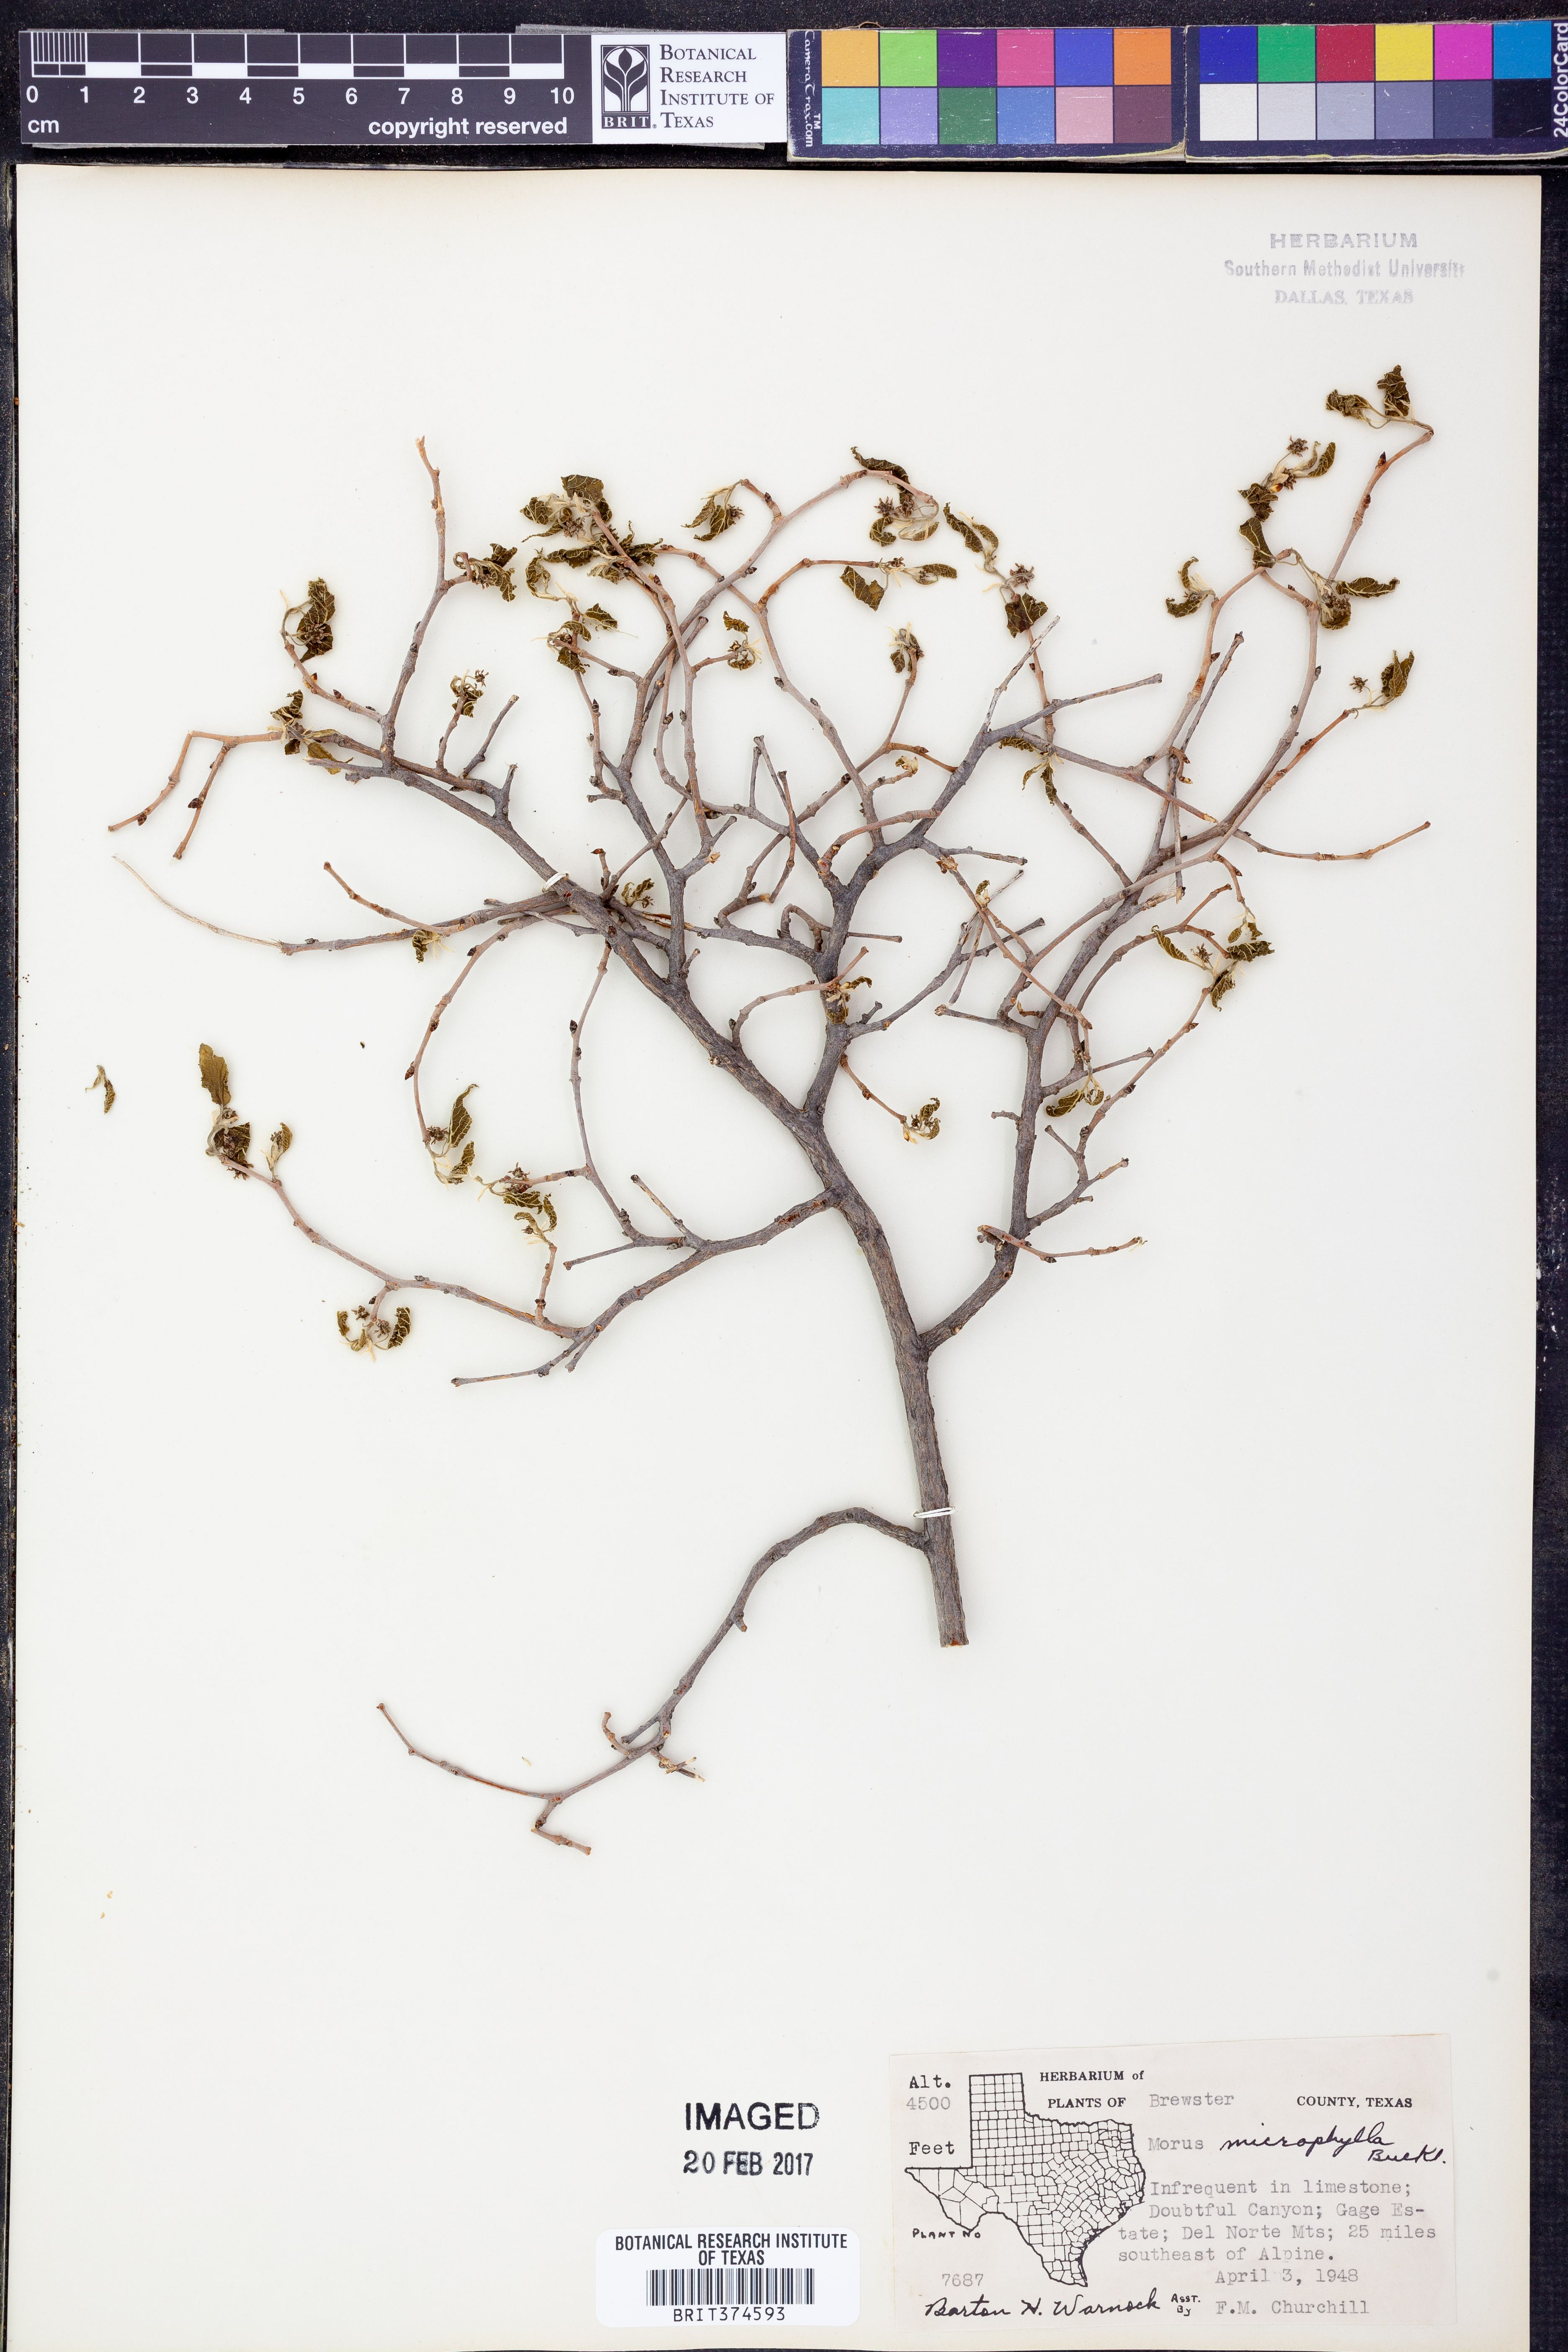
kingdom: Plantae
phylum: Tracheophyta
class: Magnoliopsida
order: Rosales
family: Moraceae
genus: Morus
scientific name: Morus microphylla
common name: Mexican mulberry
